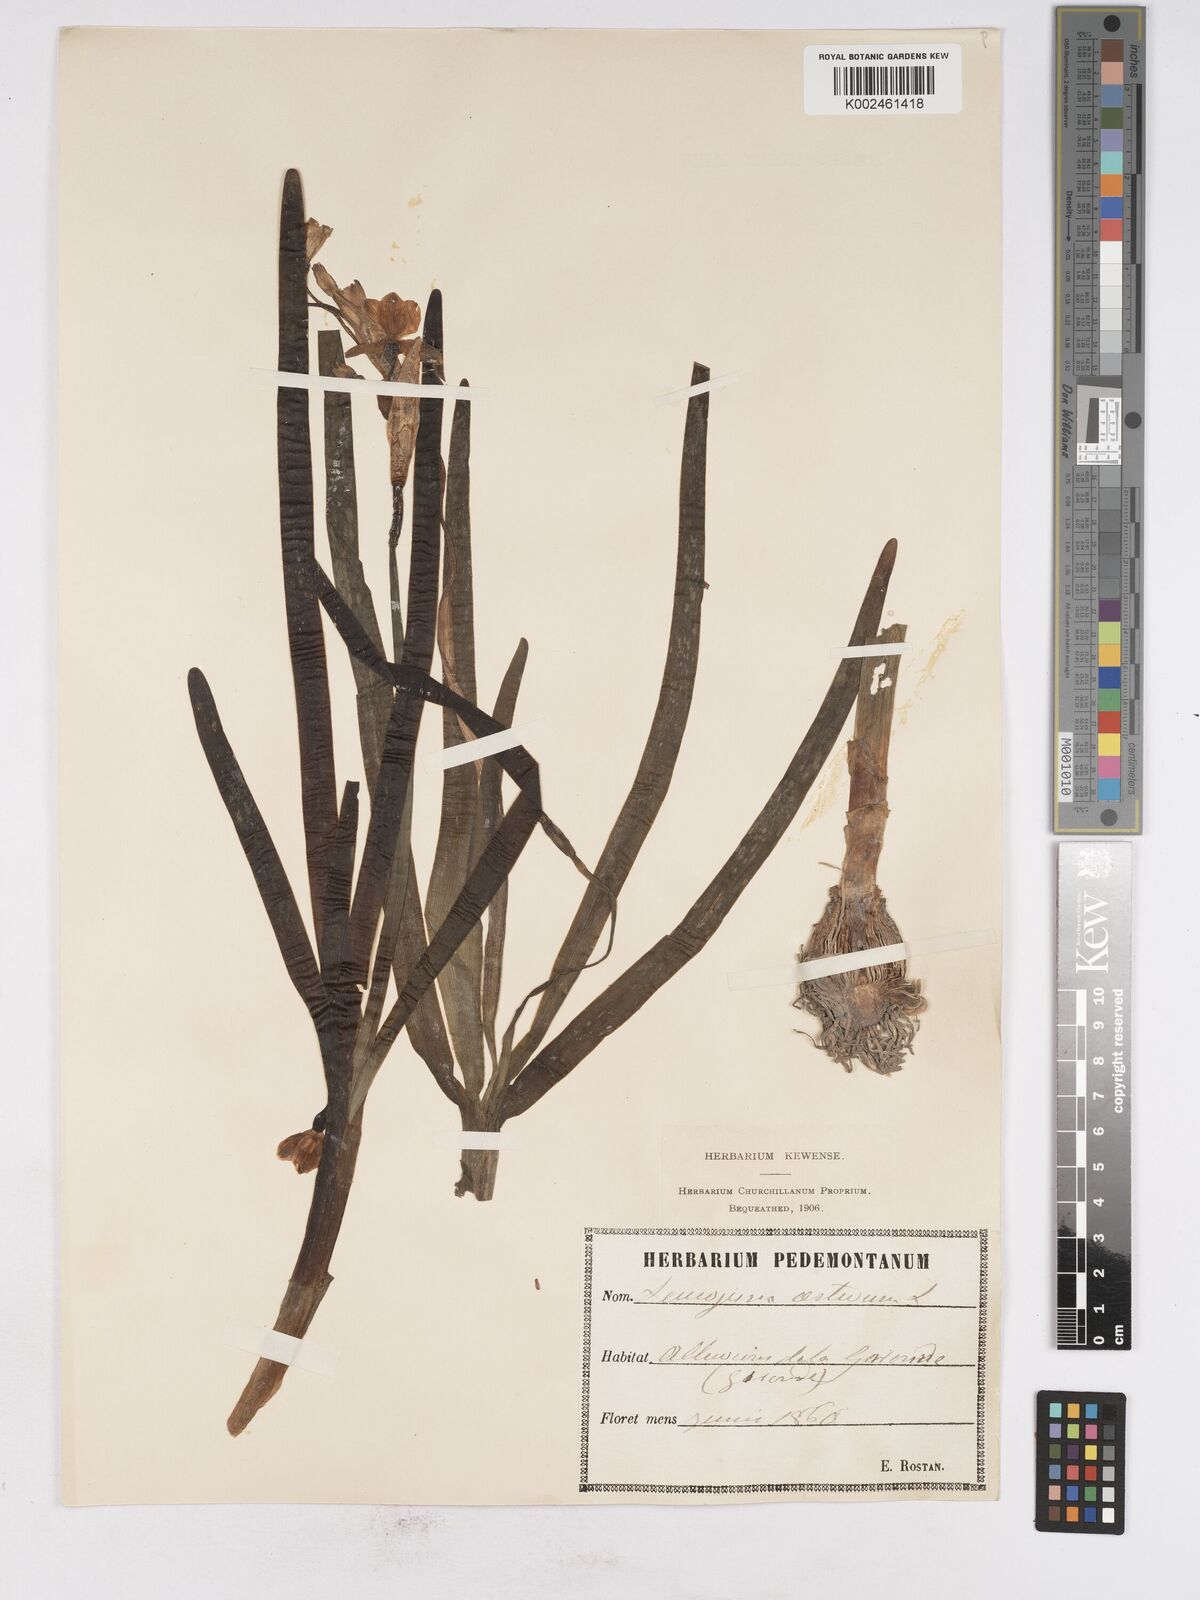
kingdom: Plantae
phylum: Tracheophyta
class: Liliopsida
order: Asparagales
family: Amaryllidaceae
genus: Leucojum
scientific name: Leucojum aestivum
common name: Summer snowflake
